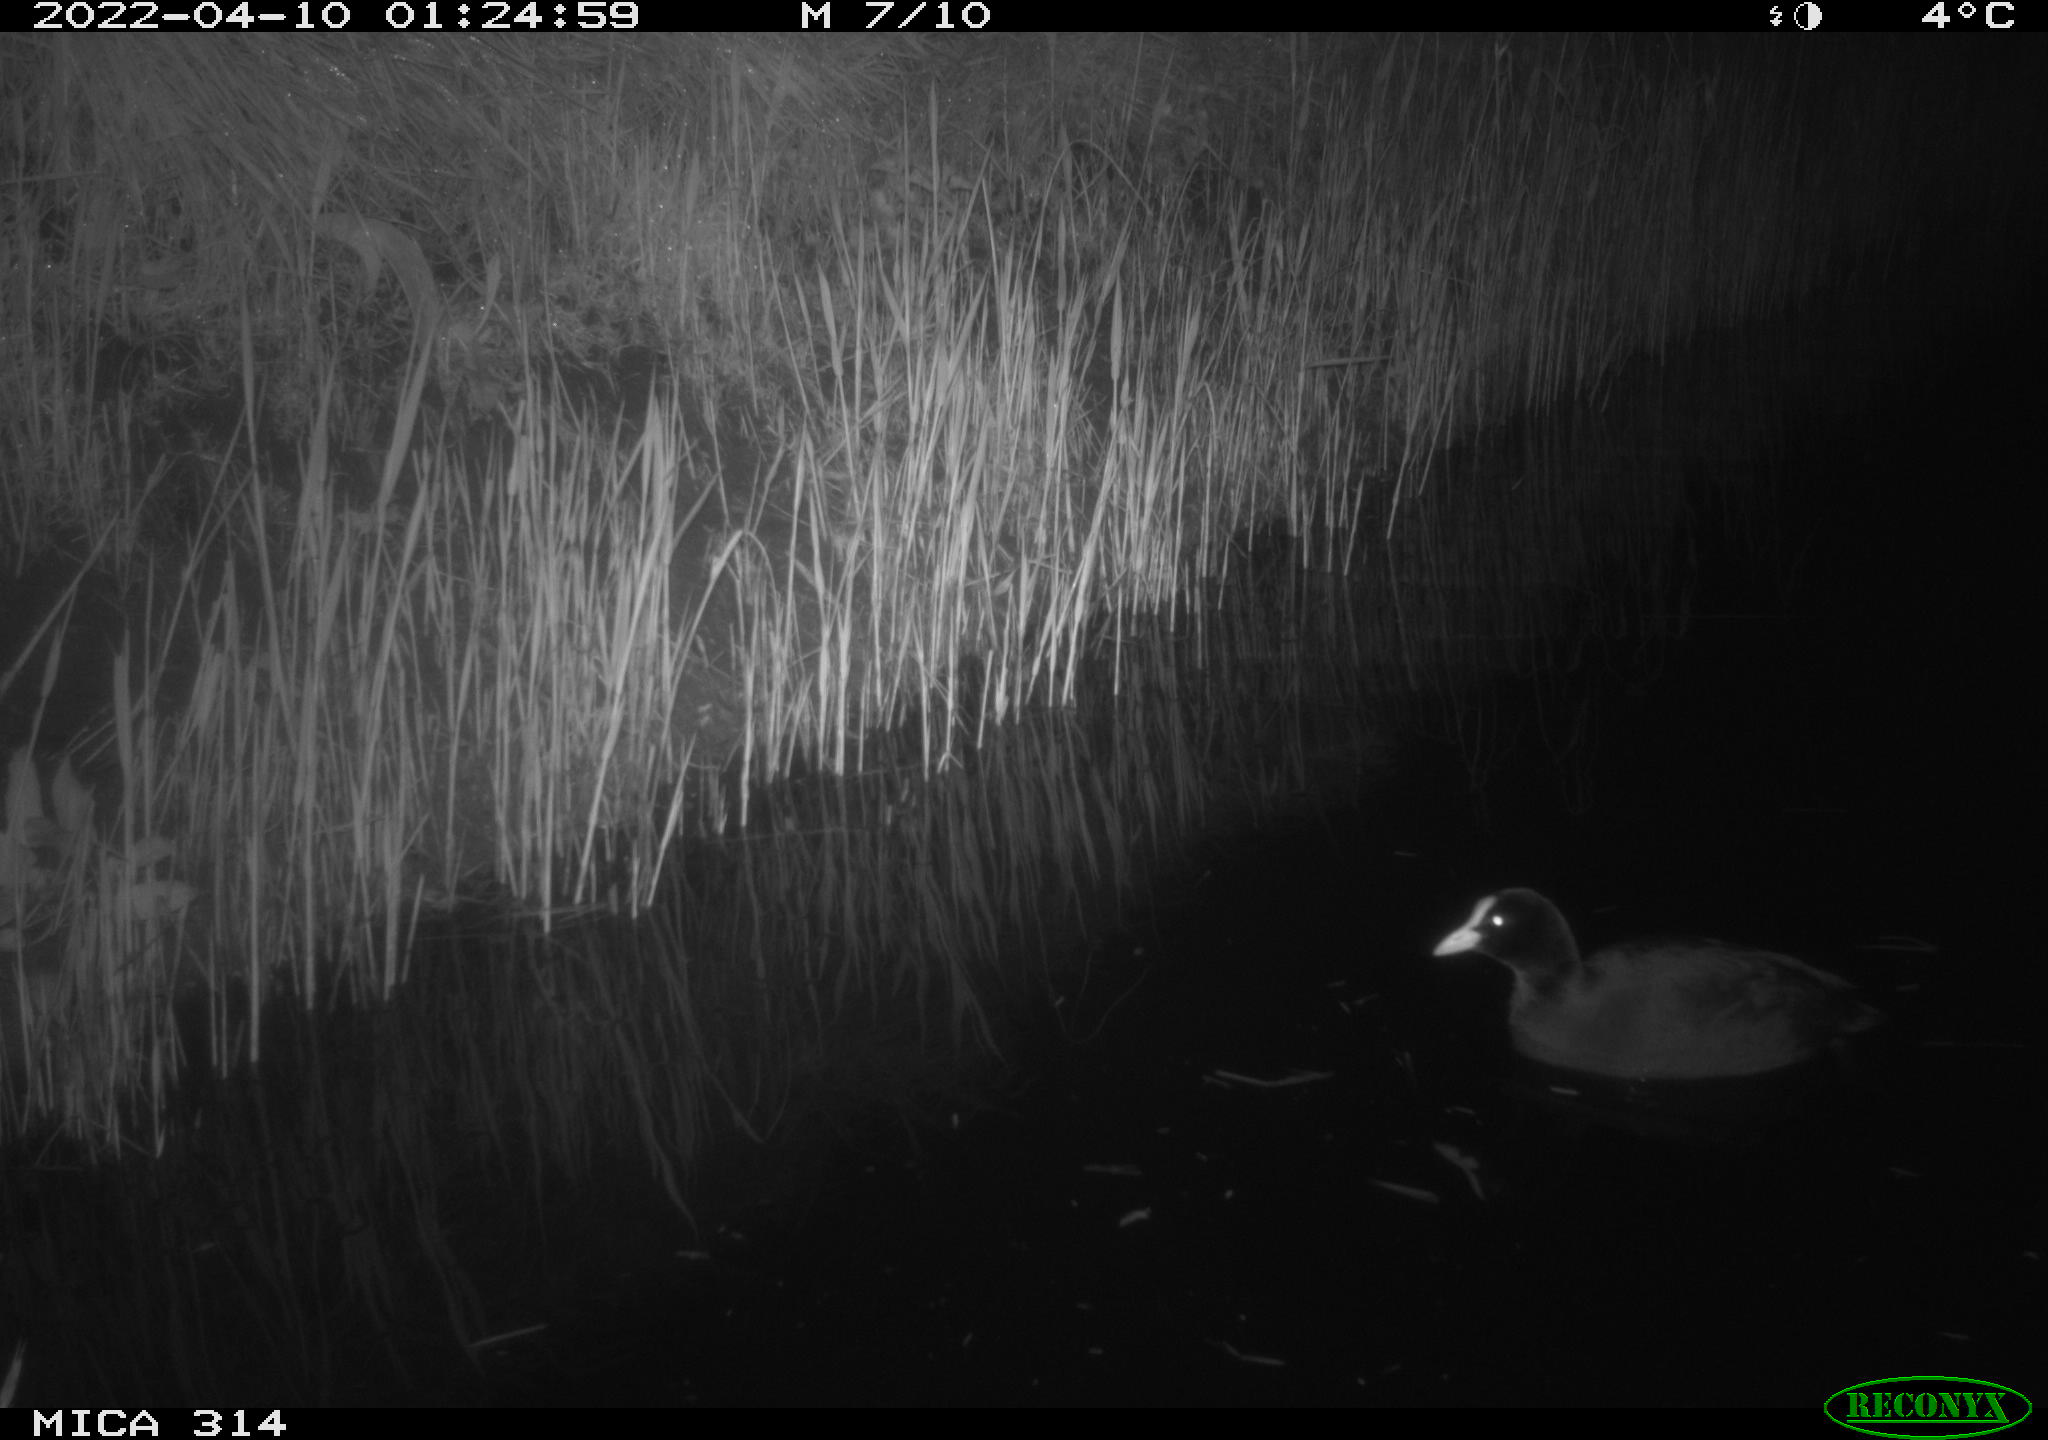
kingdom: Animalia
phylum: Chordata
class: Aves
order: Gruiformes
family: Rallidae
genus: Fulica
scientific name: Fulica atra
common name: Eurasian coot
